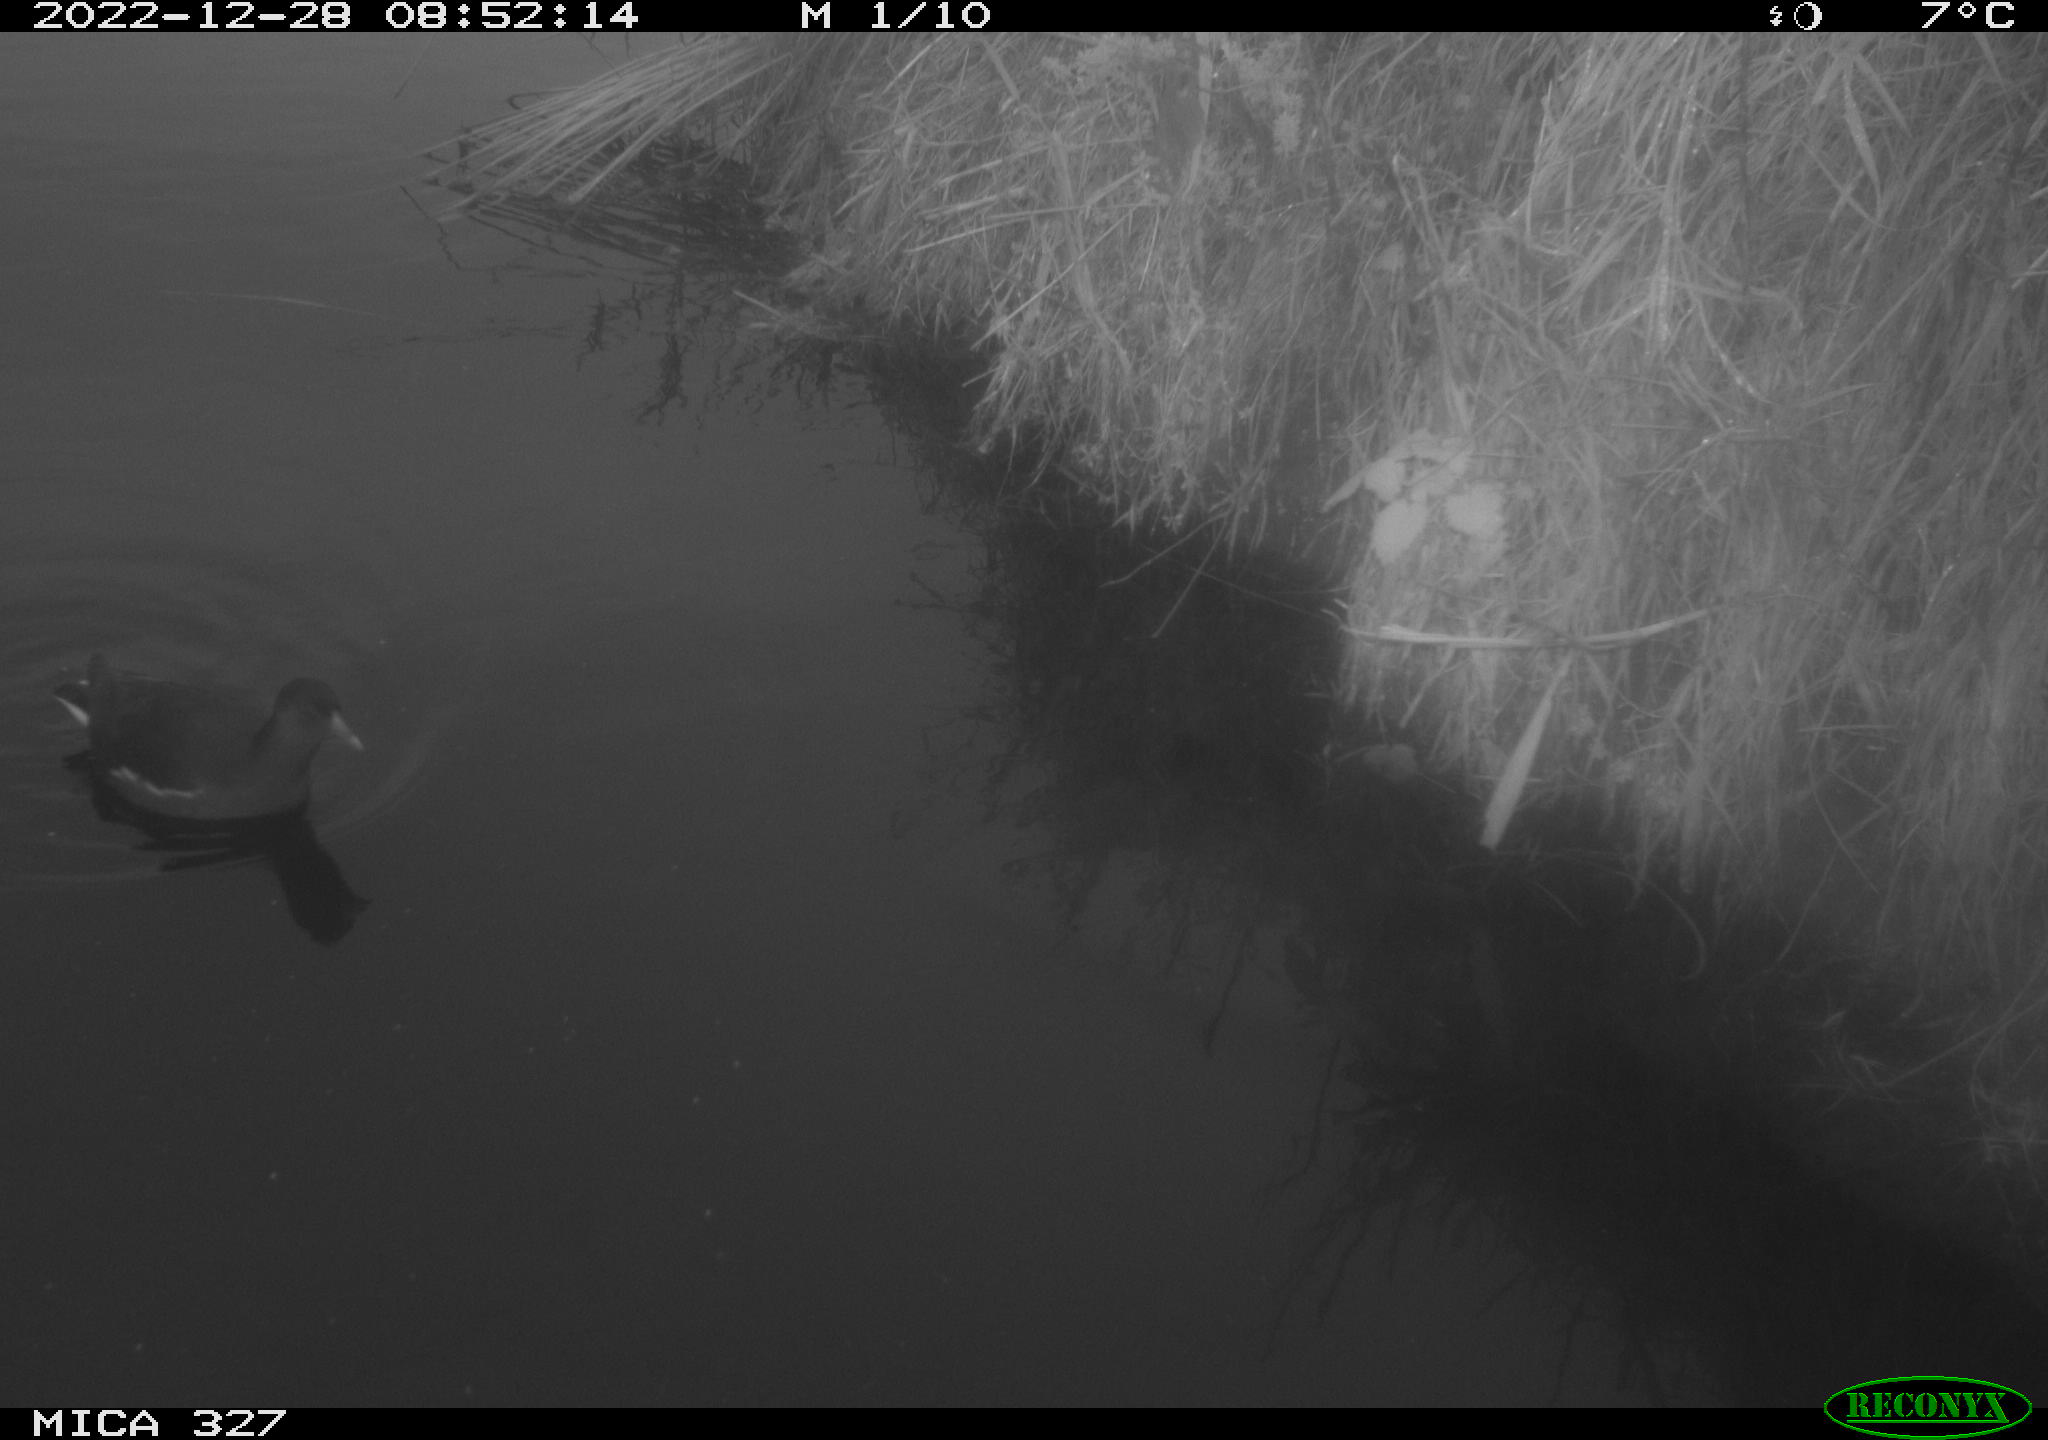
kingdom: Animalia
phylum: Chordata
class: Aves
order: Gruiformes
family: Rallidae
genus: Gallinula
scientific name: Gallinula chloropus
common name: Common moorhen
